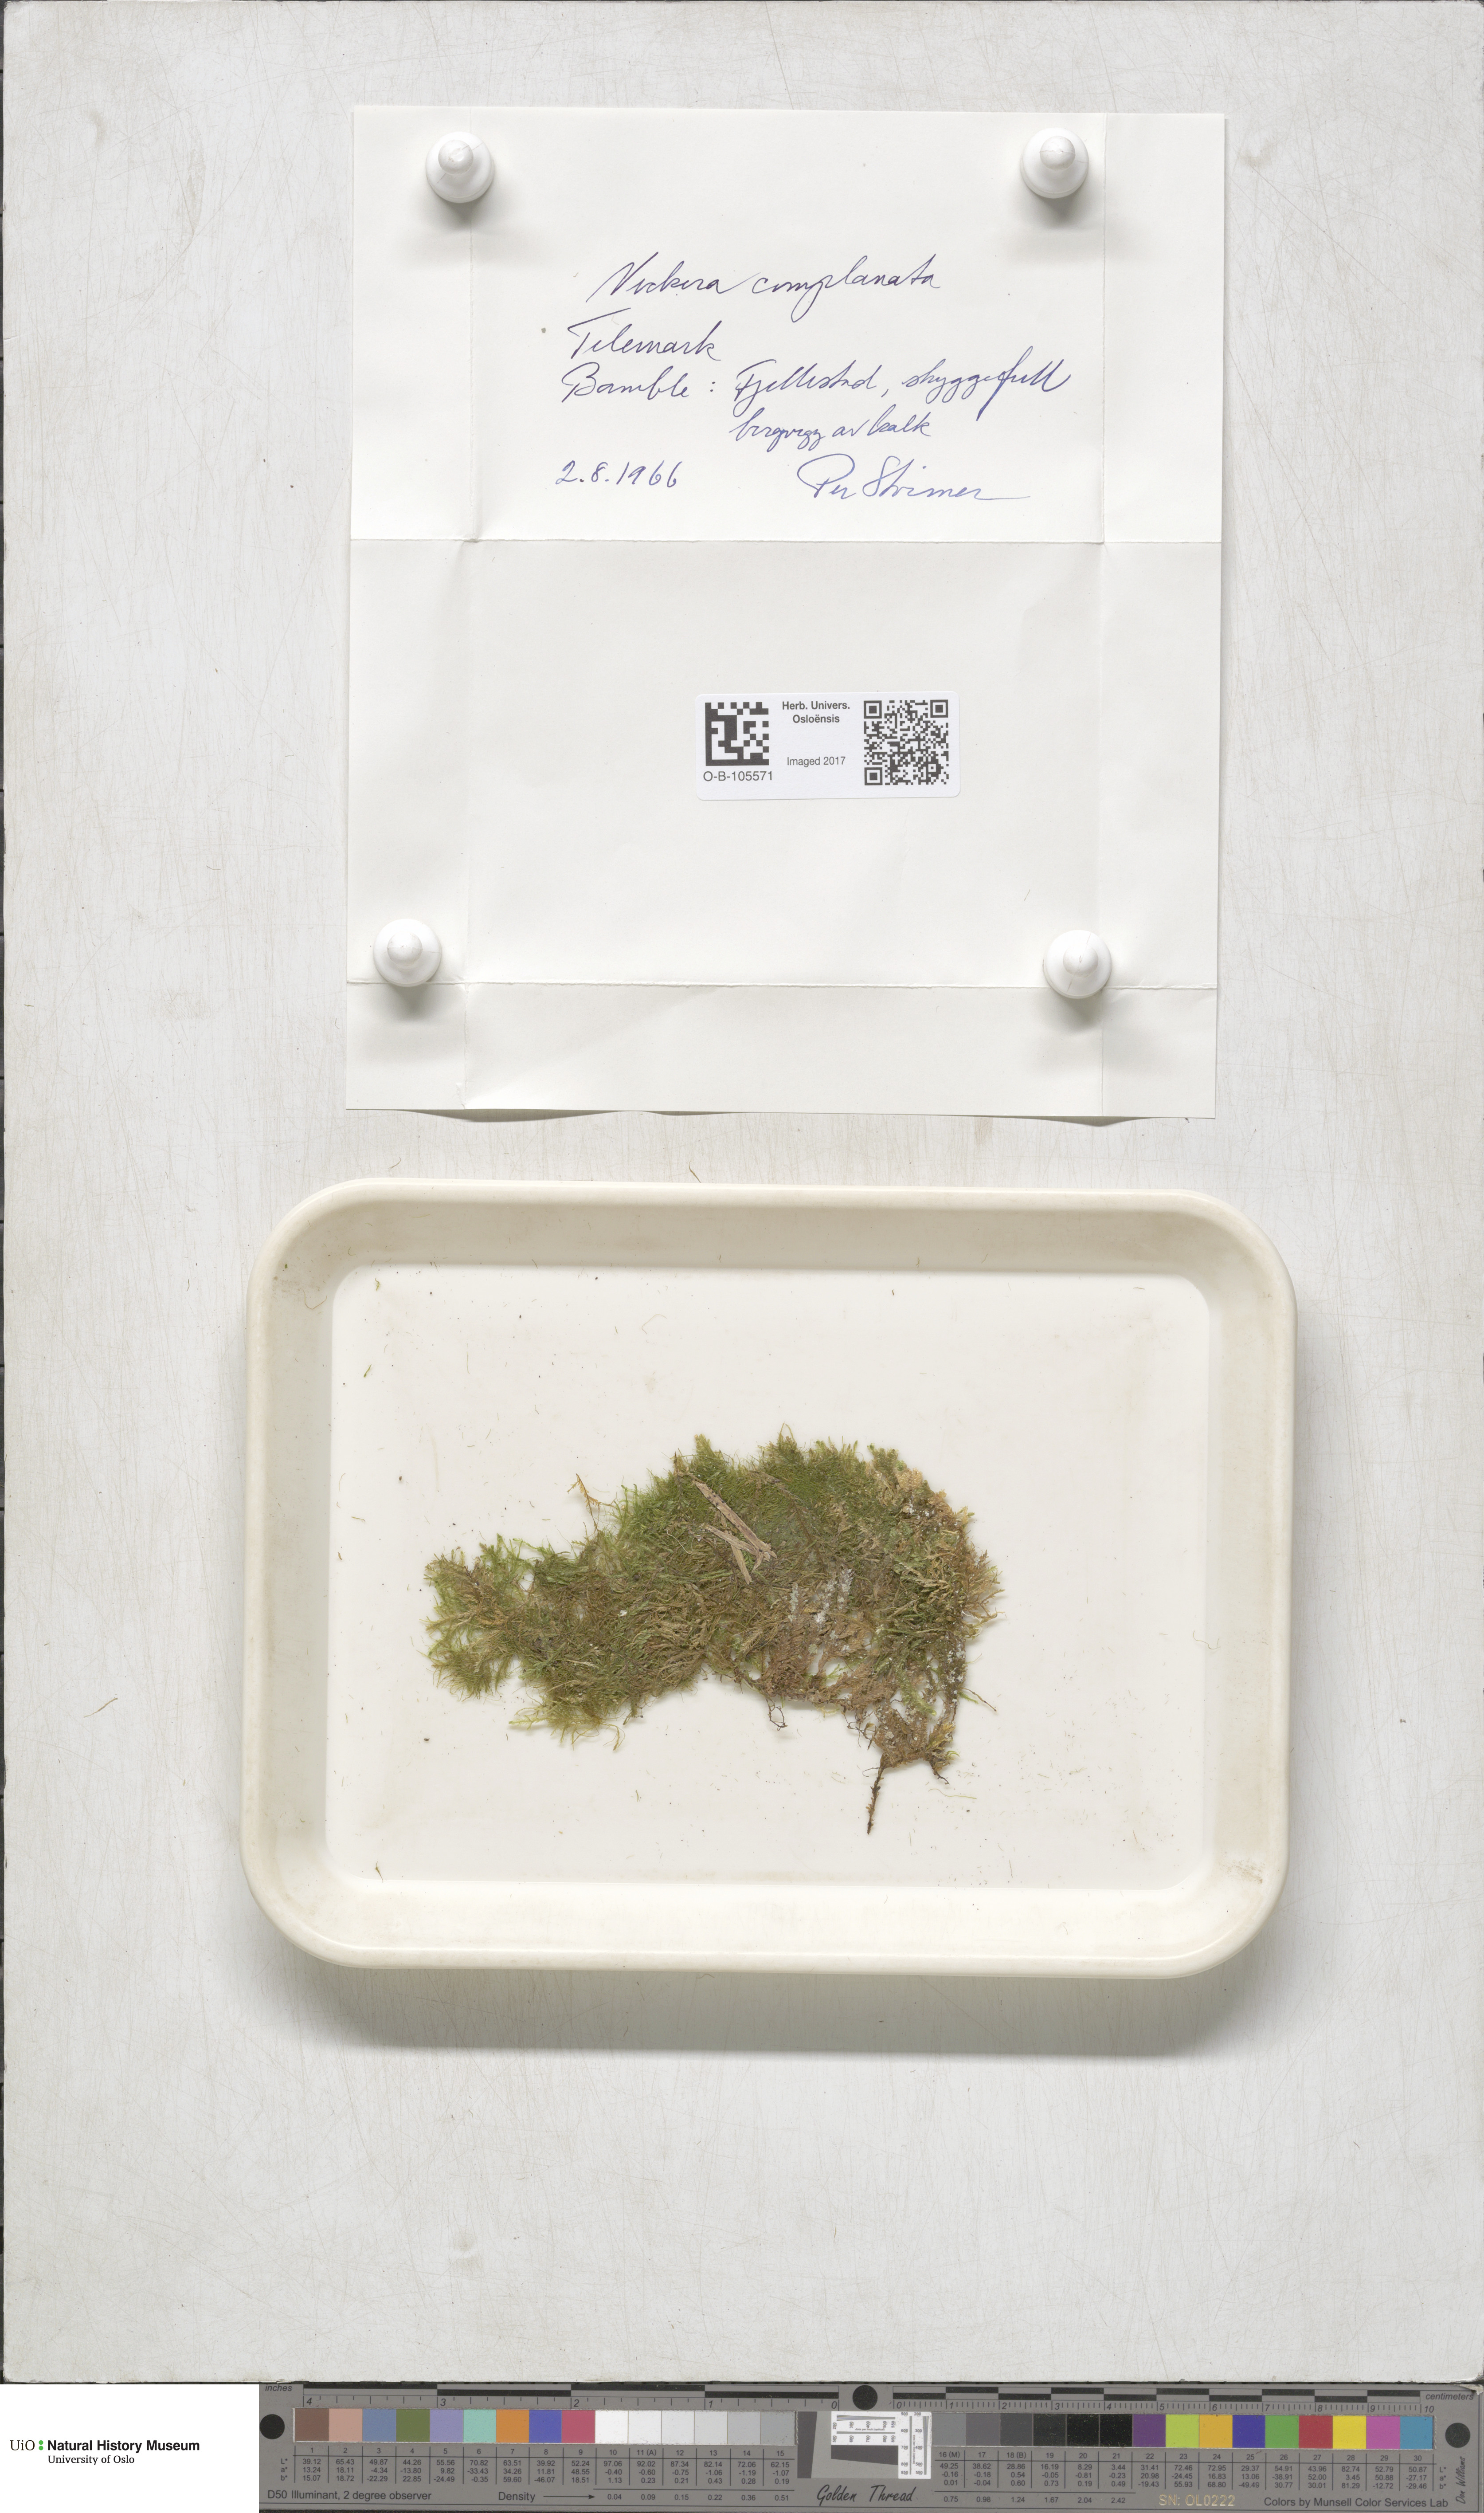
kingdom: Plantae
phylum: Bryophyta
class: Bryopsida
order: Hypnales
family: Neckeraceae
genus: Alleniella
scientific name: Alleniella complanata
